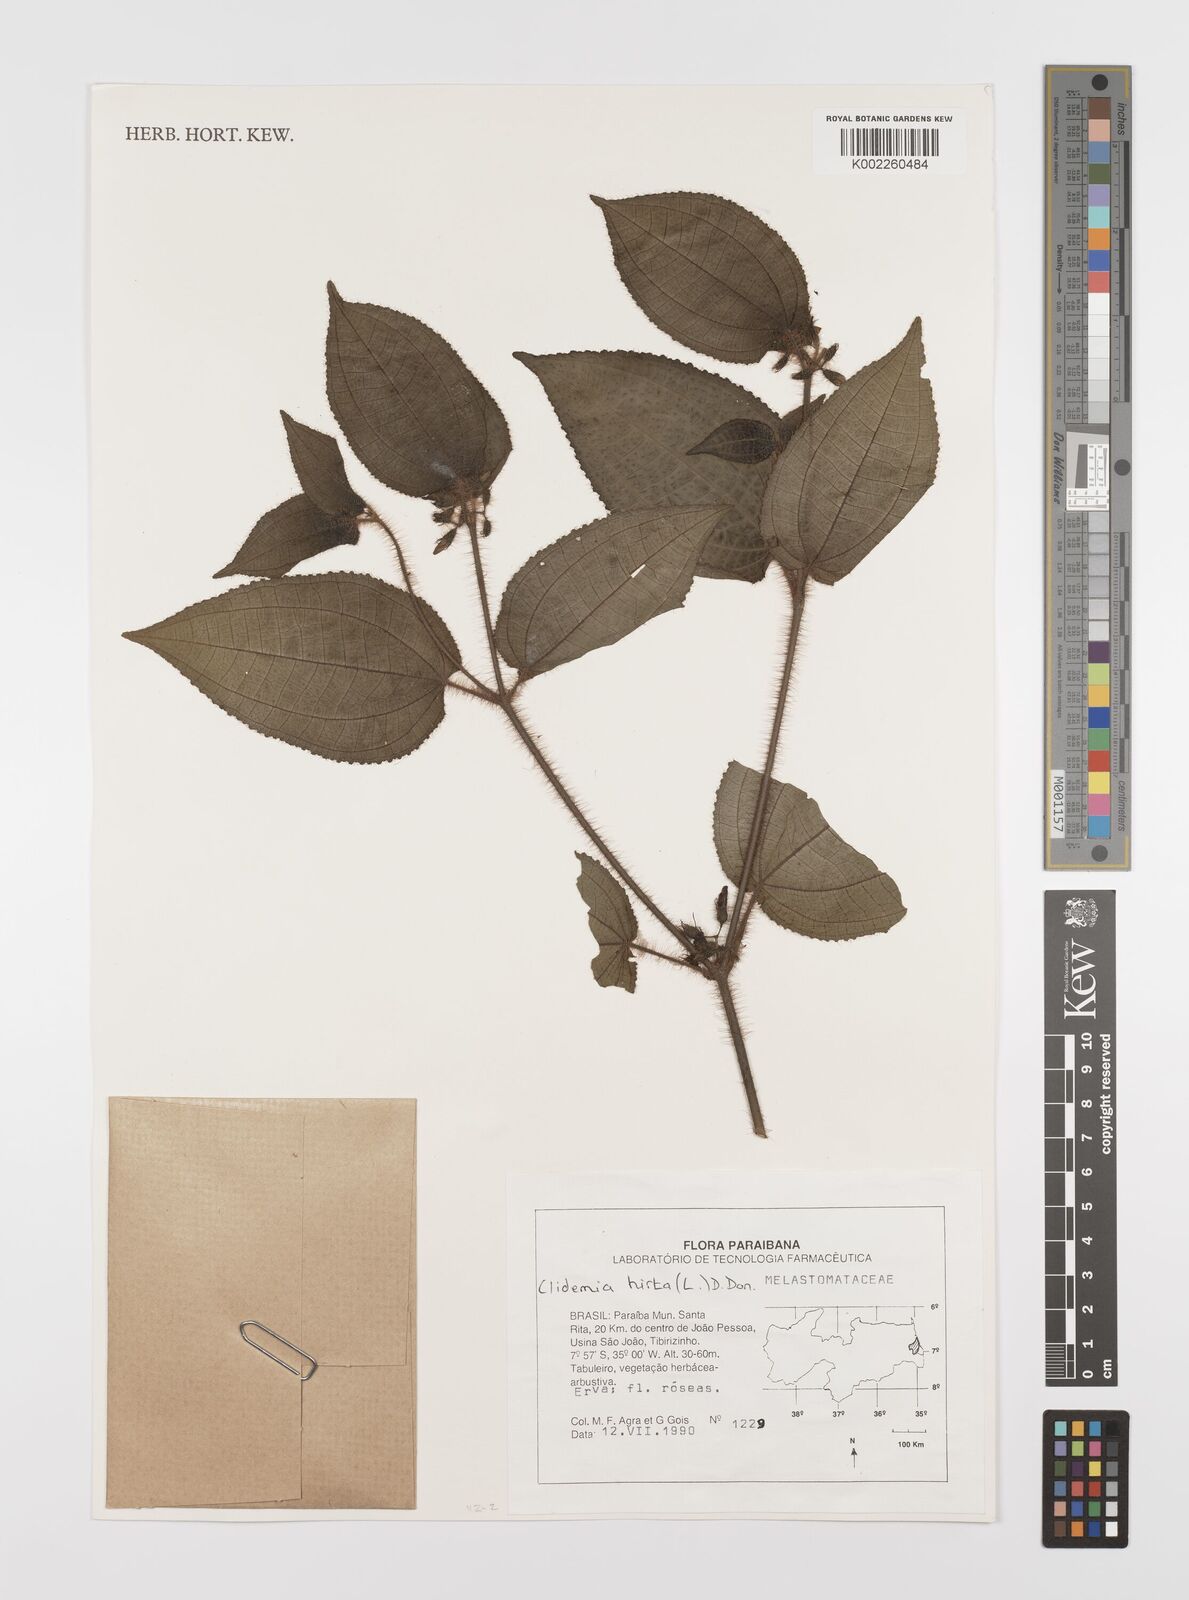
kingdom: Plantae
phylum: Tracheophyta
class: Magnoliopsida
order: Myrtales
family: Melastomataceae
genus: Miconia
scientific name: Miconia crenata
